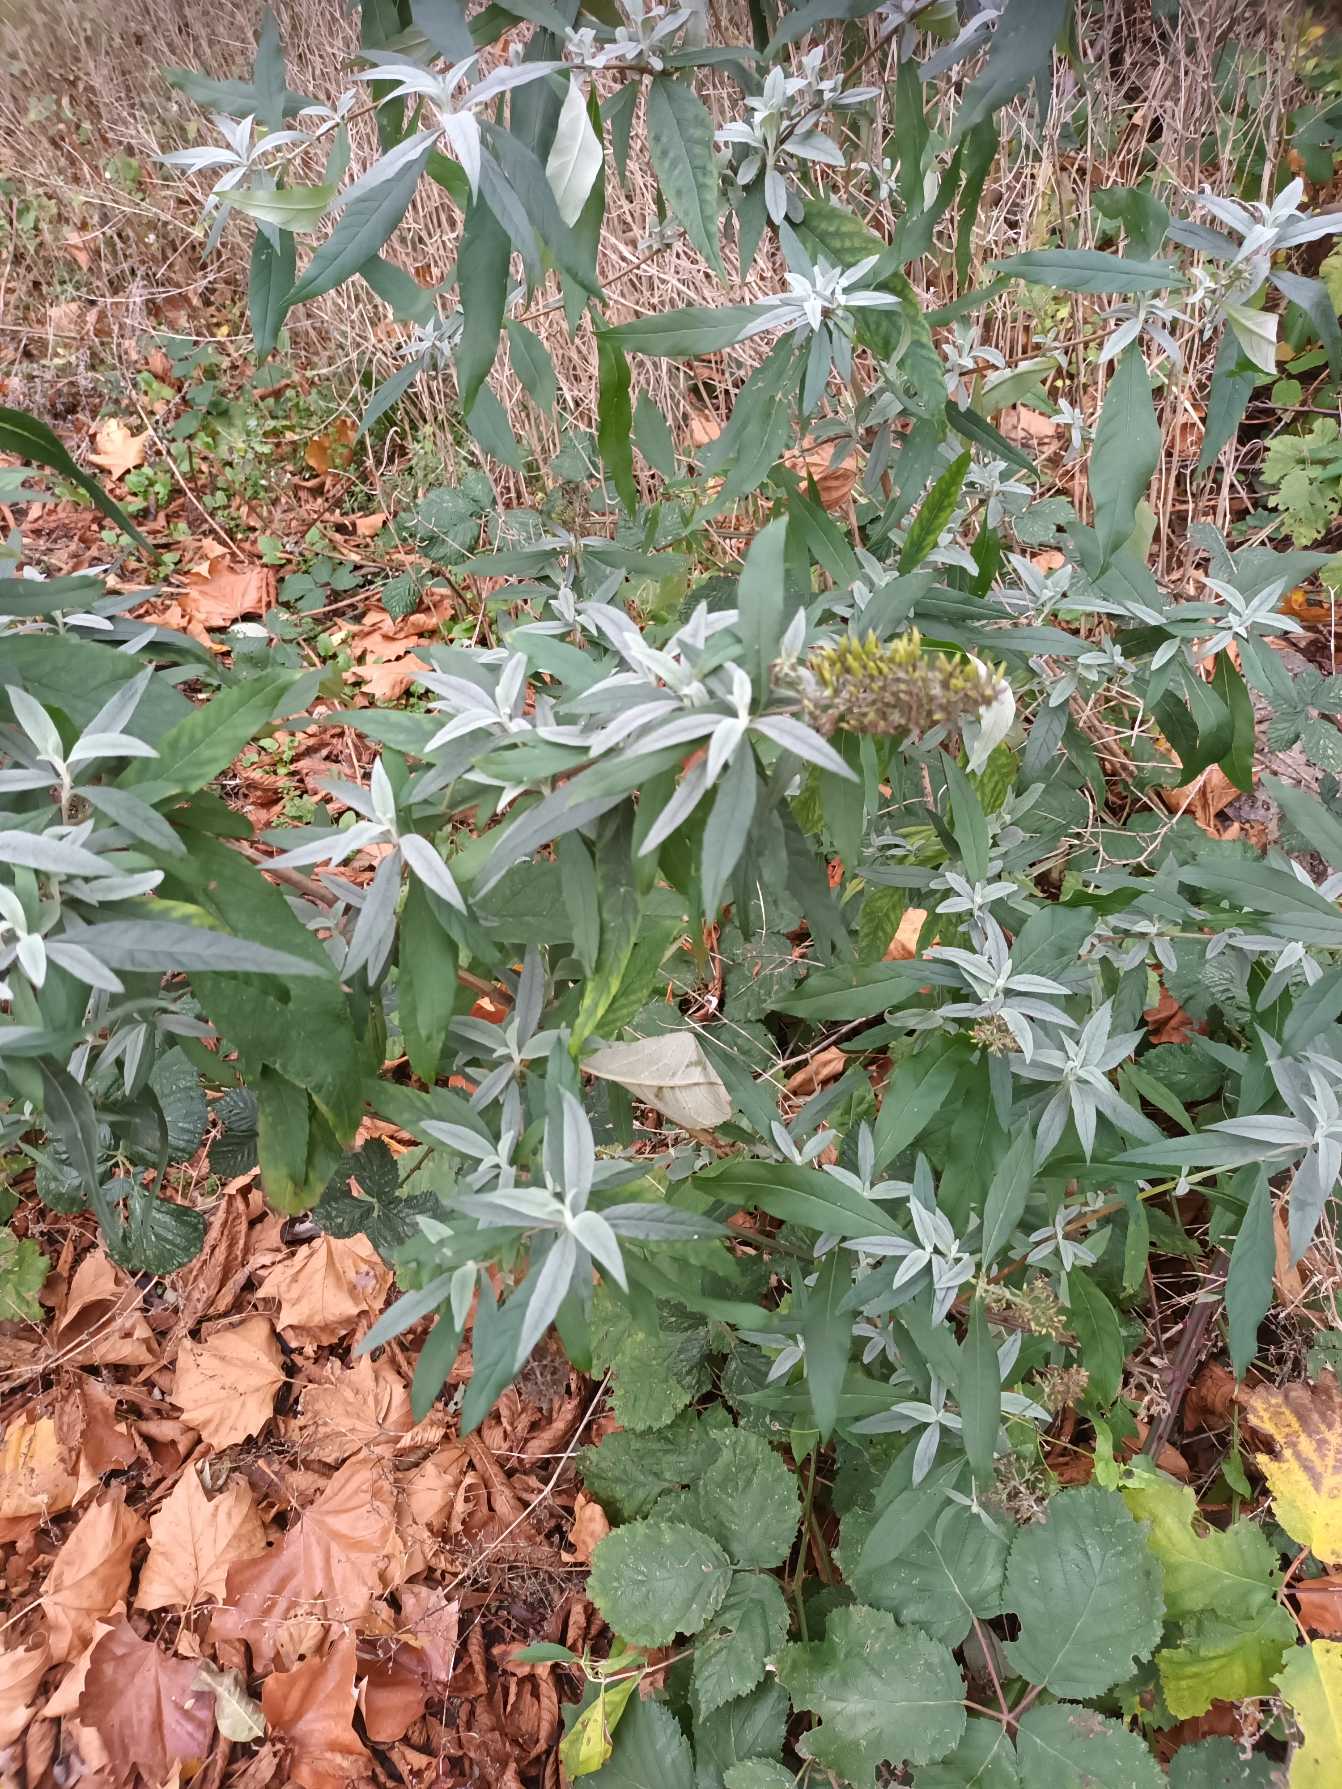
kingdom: Plantae
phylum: Tracheophyta
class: Magnoliopsida
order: Lamiales
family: Scrophulariaceae
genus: Buddleja
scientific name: Buddleja davidii
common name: Sommerfuglebusk
